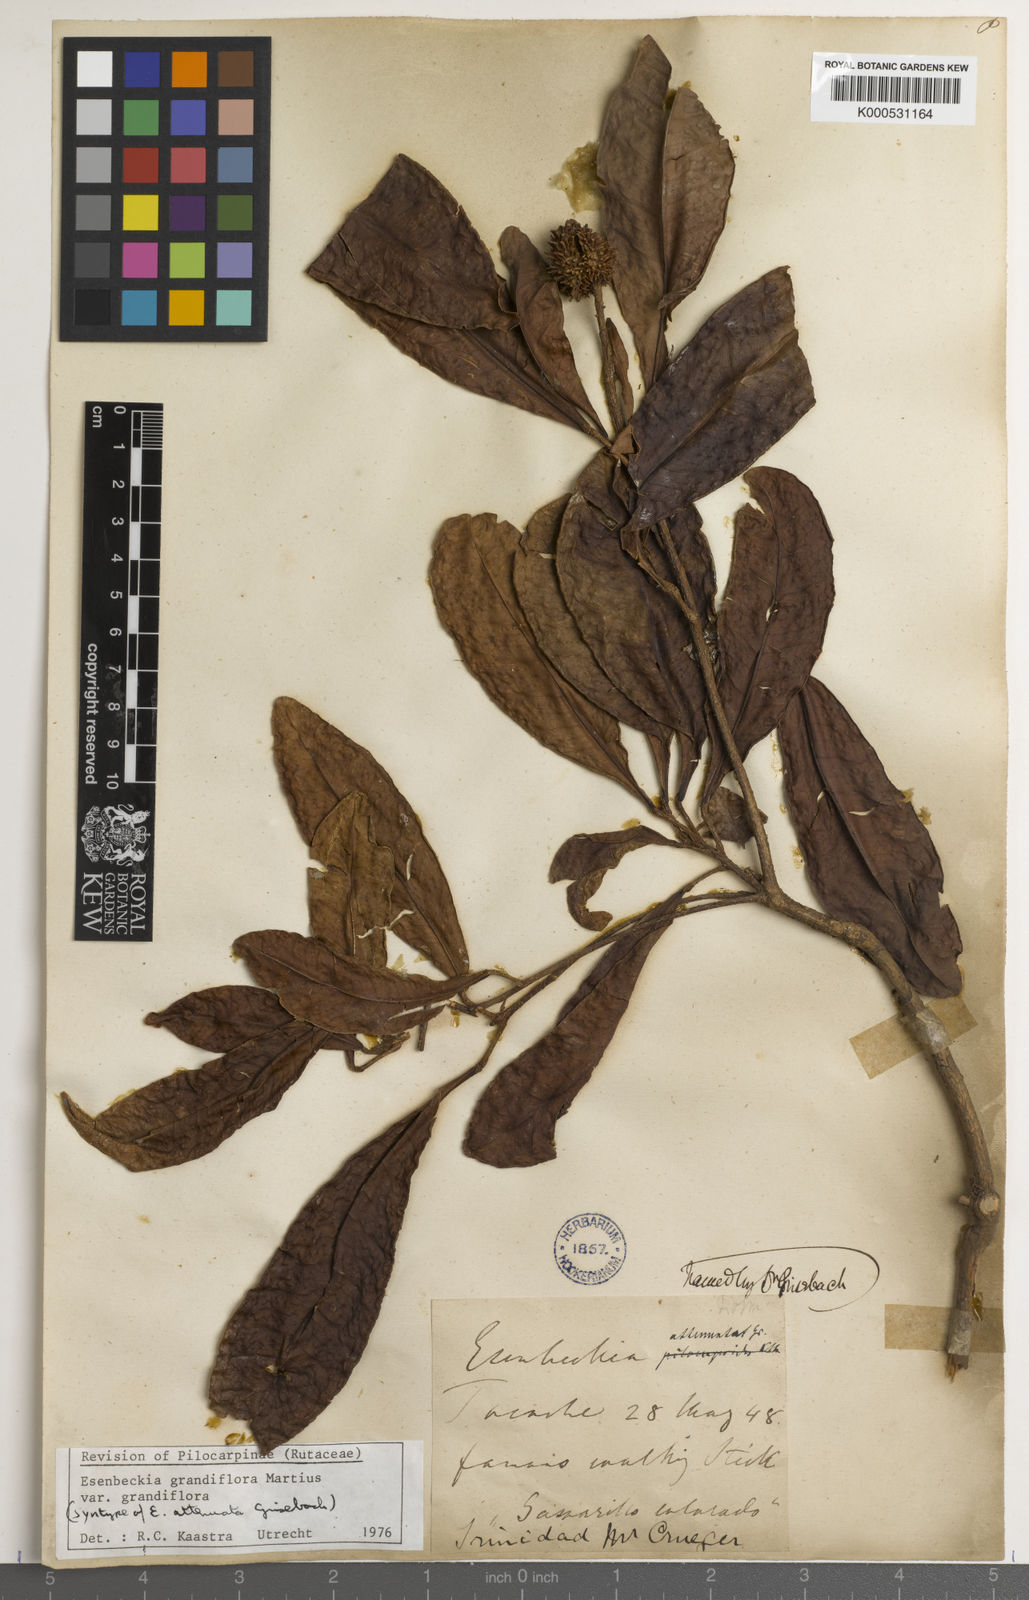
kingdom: Plantae
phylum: Tracheophyta
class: Magnoliopsida
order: Sapindales
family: Rutaceae
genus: Esenbeckia
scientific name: Esenbeckia grandiflora
